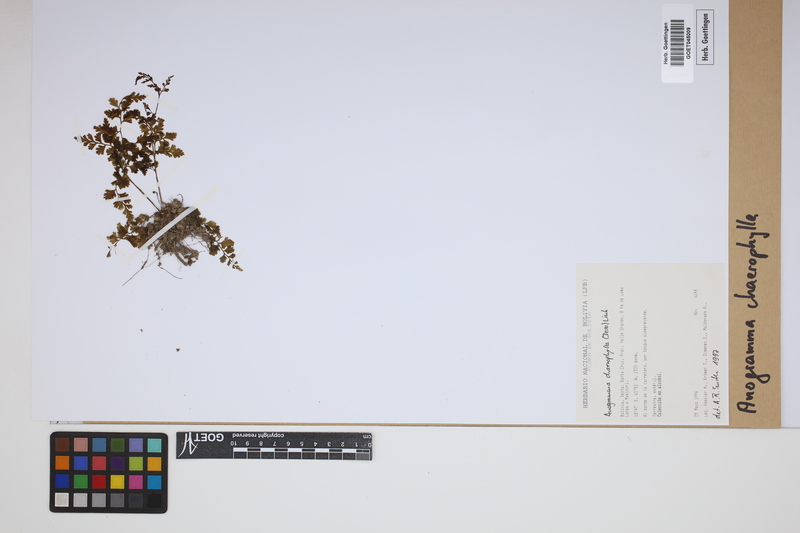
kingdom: Plantae
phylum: Tracheophyta
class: Polypodiopsida
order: Polypodiales
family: Pteridaceae
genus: Gastoniella
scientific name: Gastoniella chaerophylla
